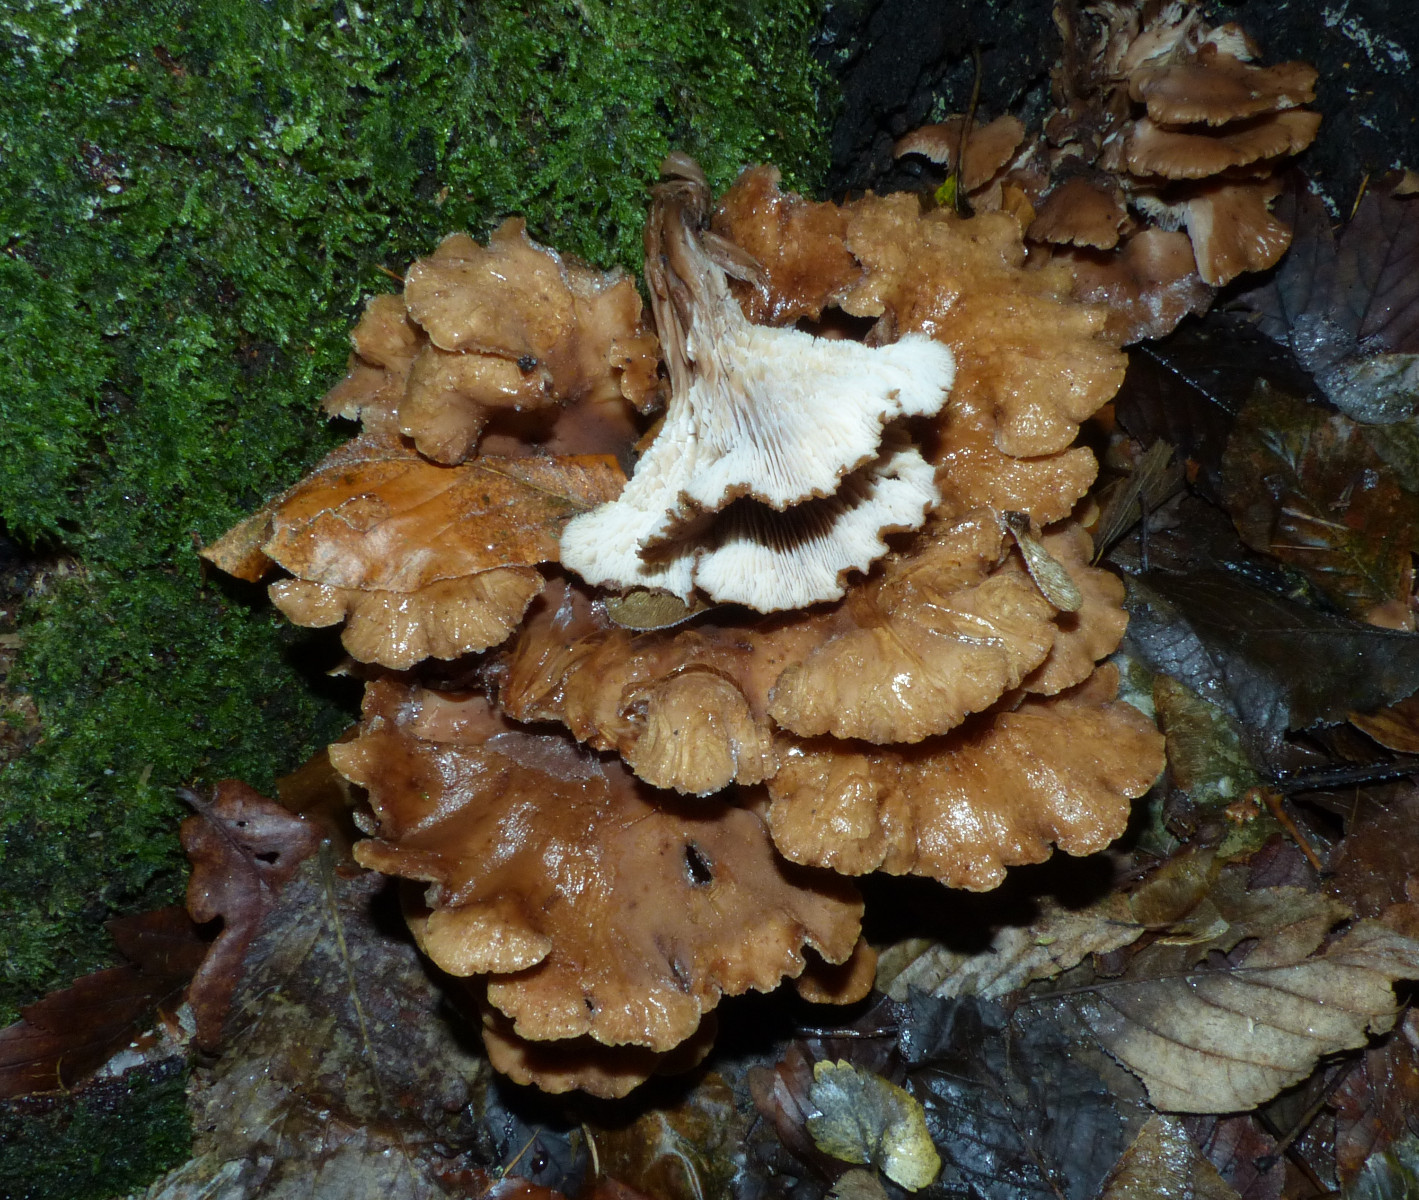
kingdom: Fungi
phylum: Basidiomycota
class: Agaricomycetes
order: Russulales
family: Auriscalpiaceae
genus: Lentinellus
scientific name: Lentinellus cochleatus
